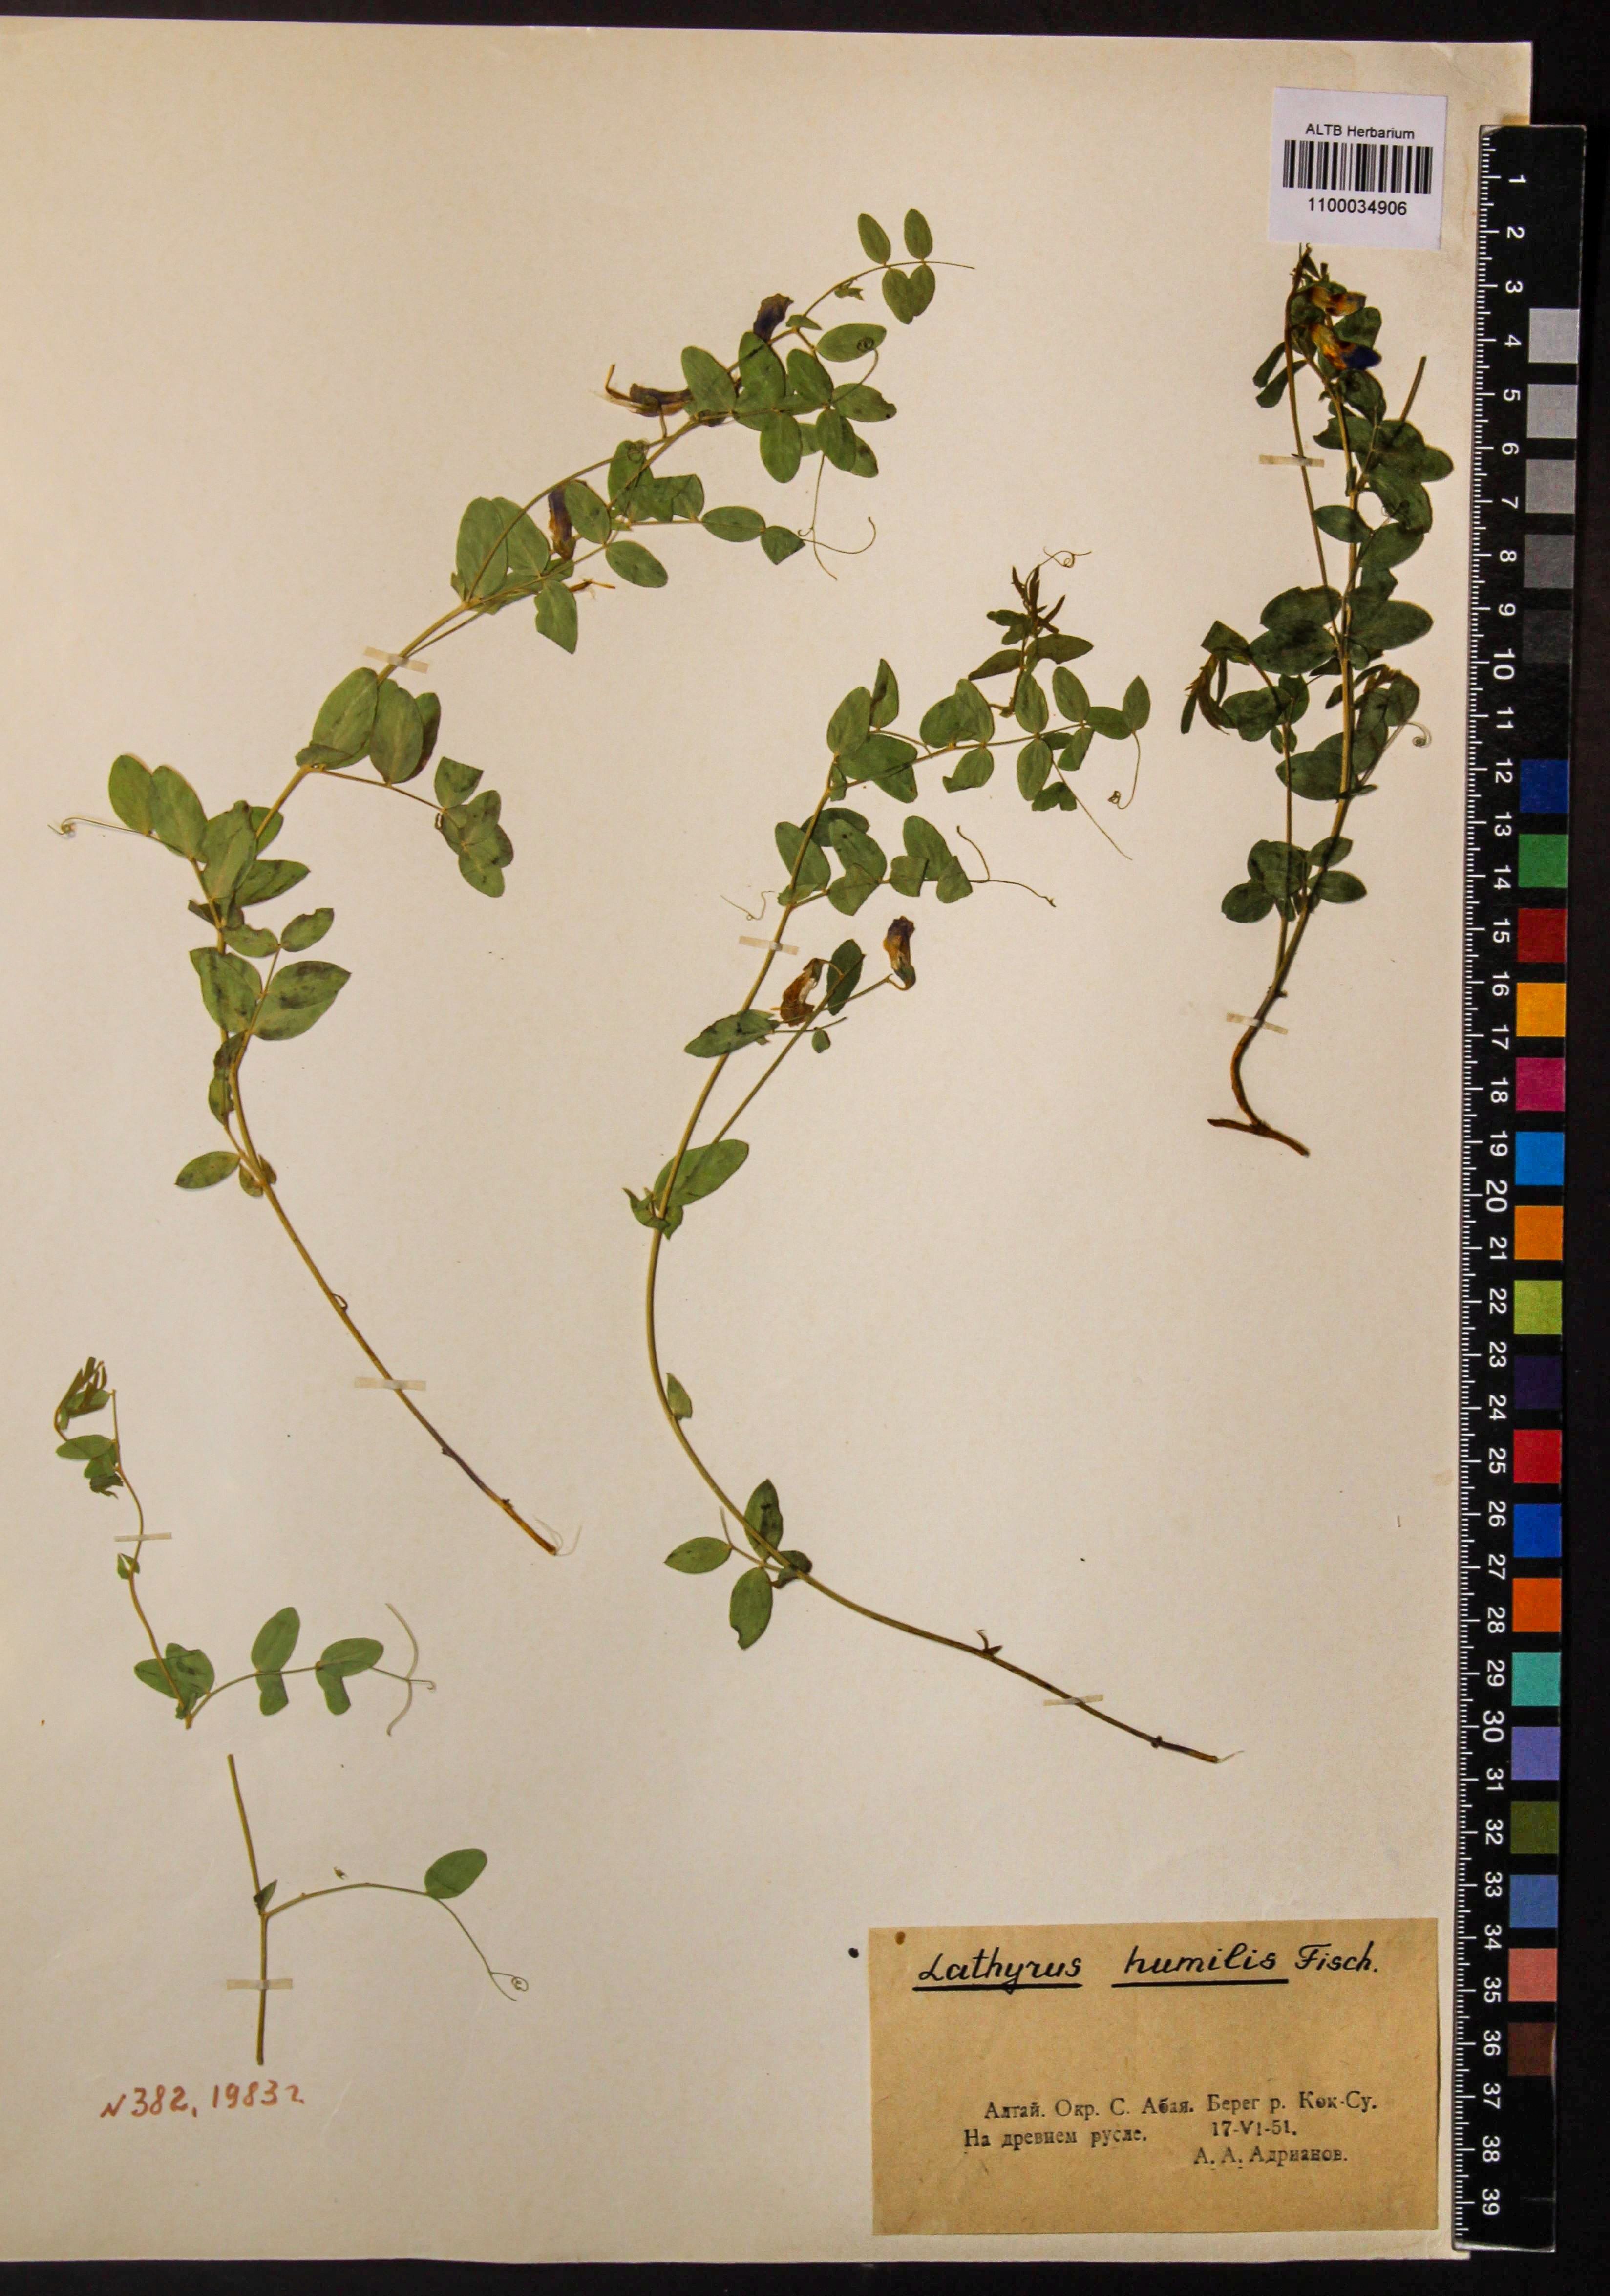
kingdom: Plantae
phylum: Tracheophyta
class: Magnoliopsida
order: Fabales
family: Fabaceae
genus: Lathyrus
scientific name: Lathyrus humilis
